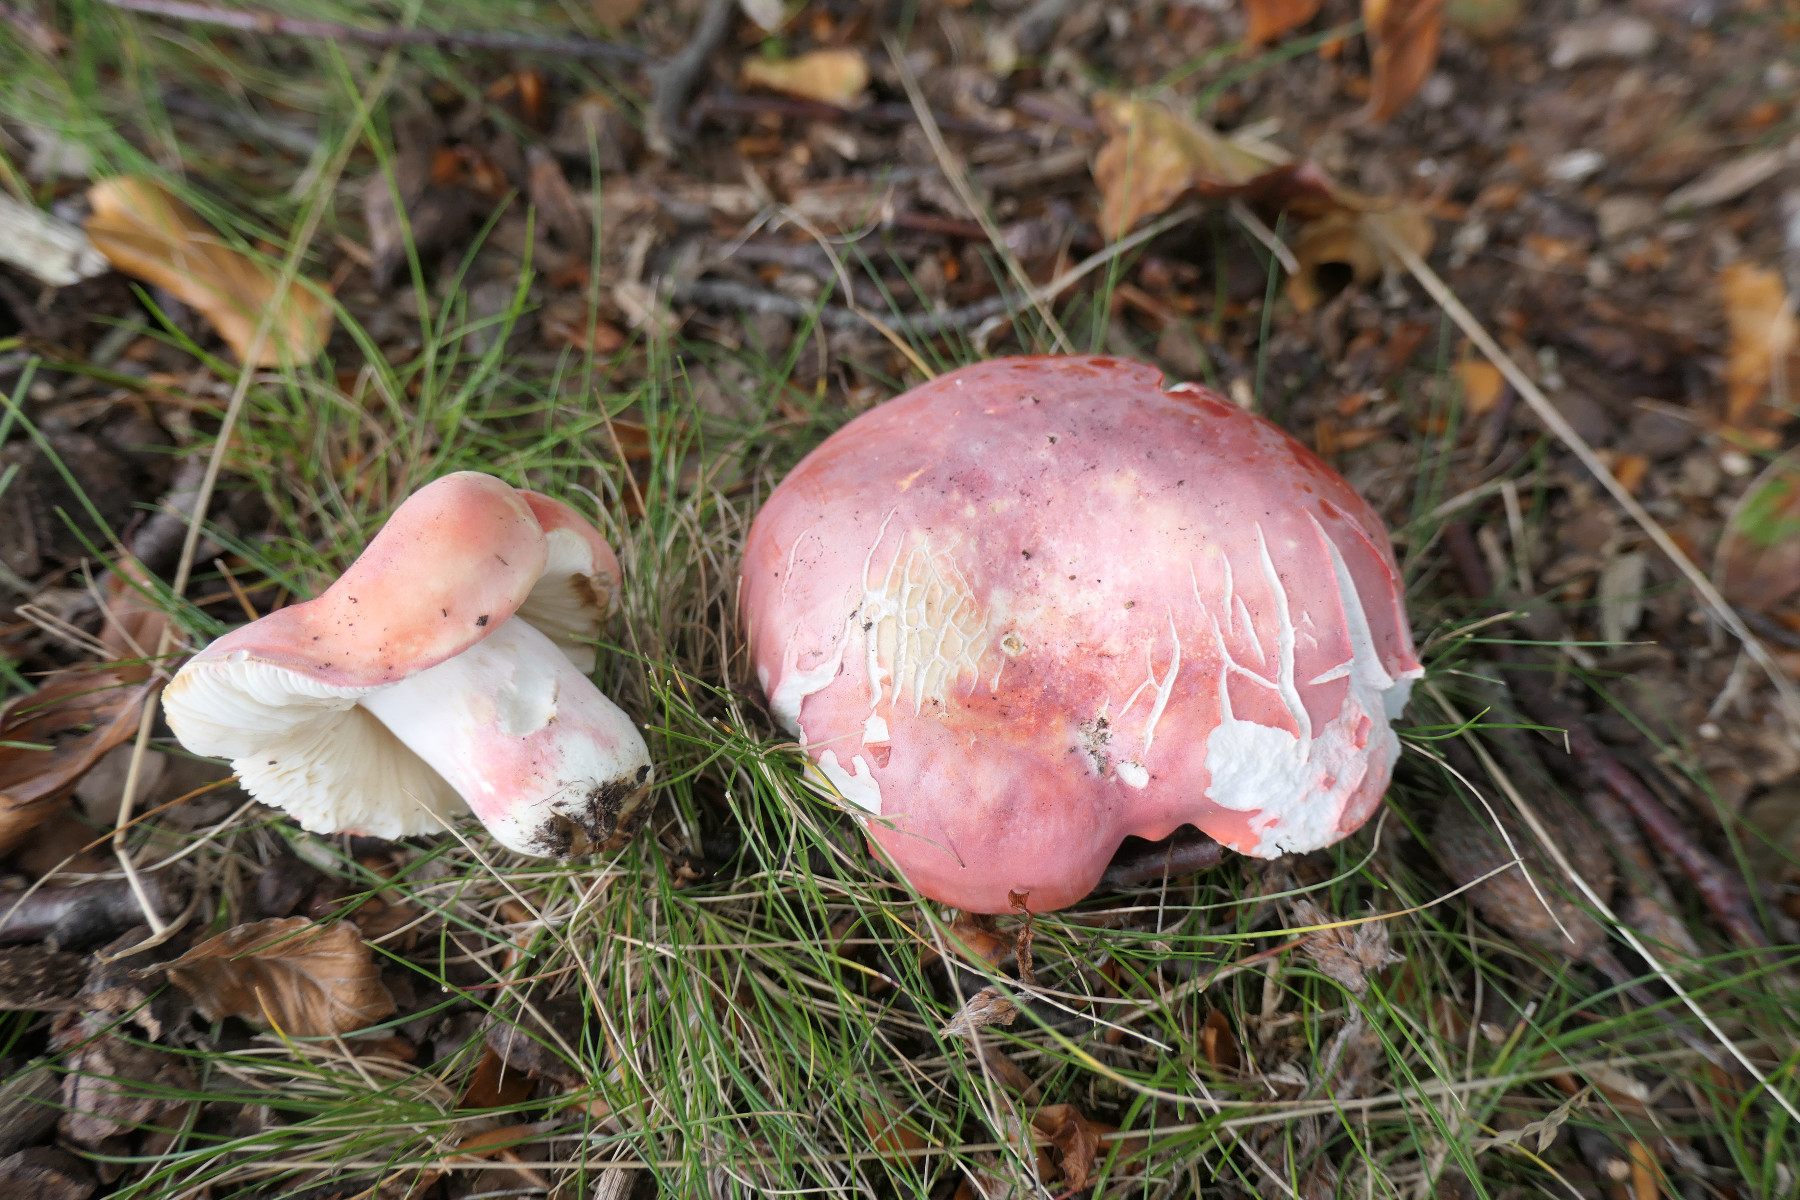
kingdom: Fungi
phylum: Basidiomycota
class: Agaricomycetes
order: Russulales
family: Russulaceae
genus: Russula
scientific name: Russula rosea
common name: fastkødet skørhat
